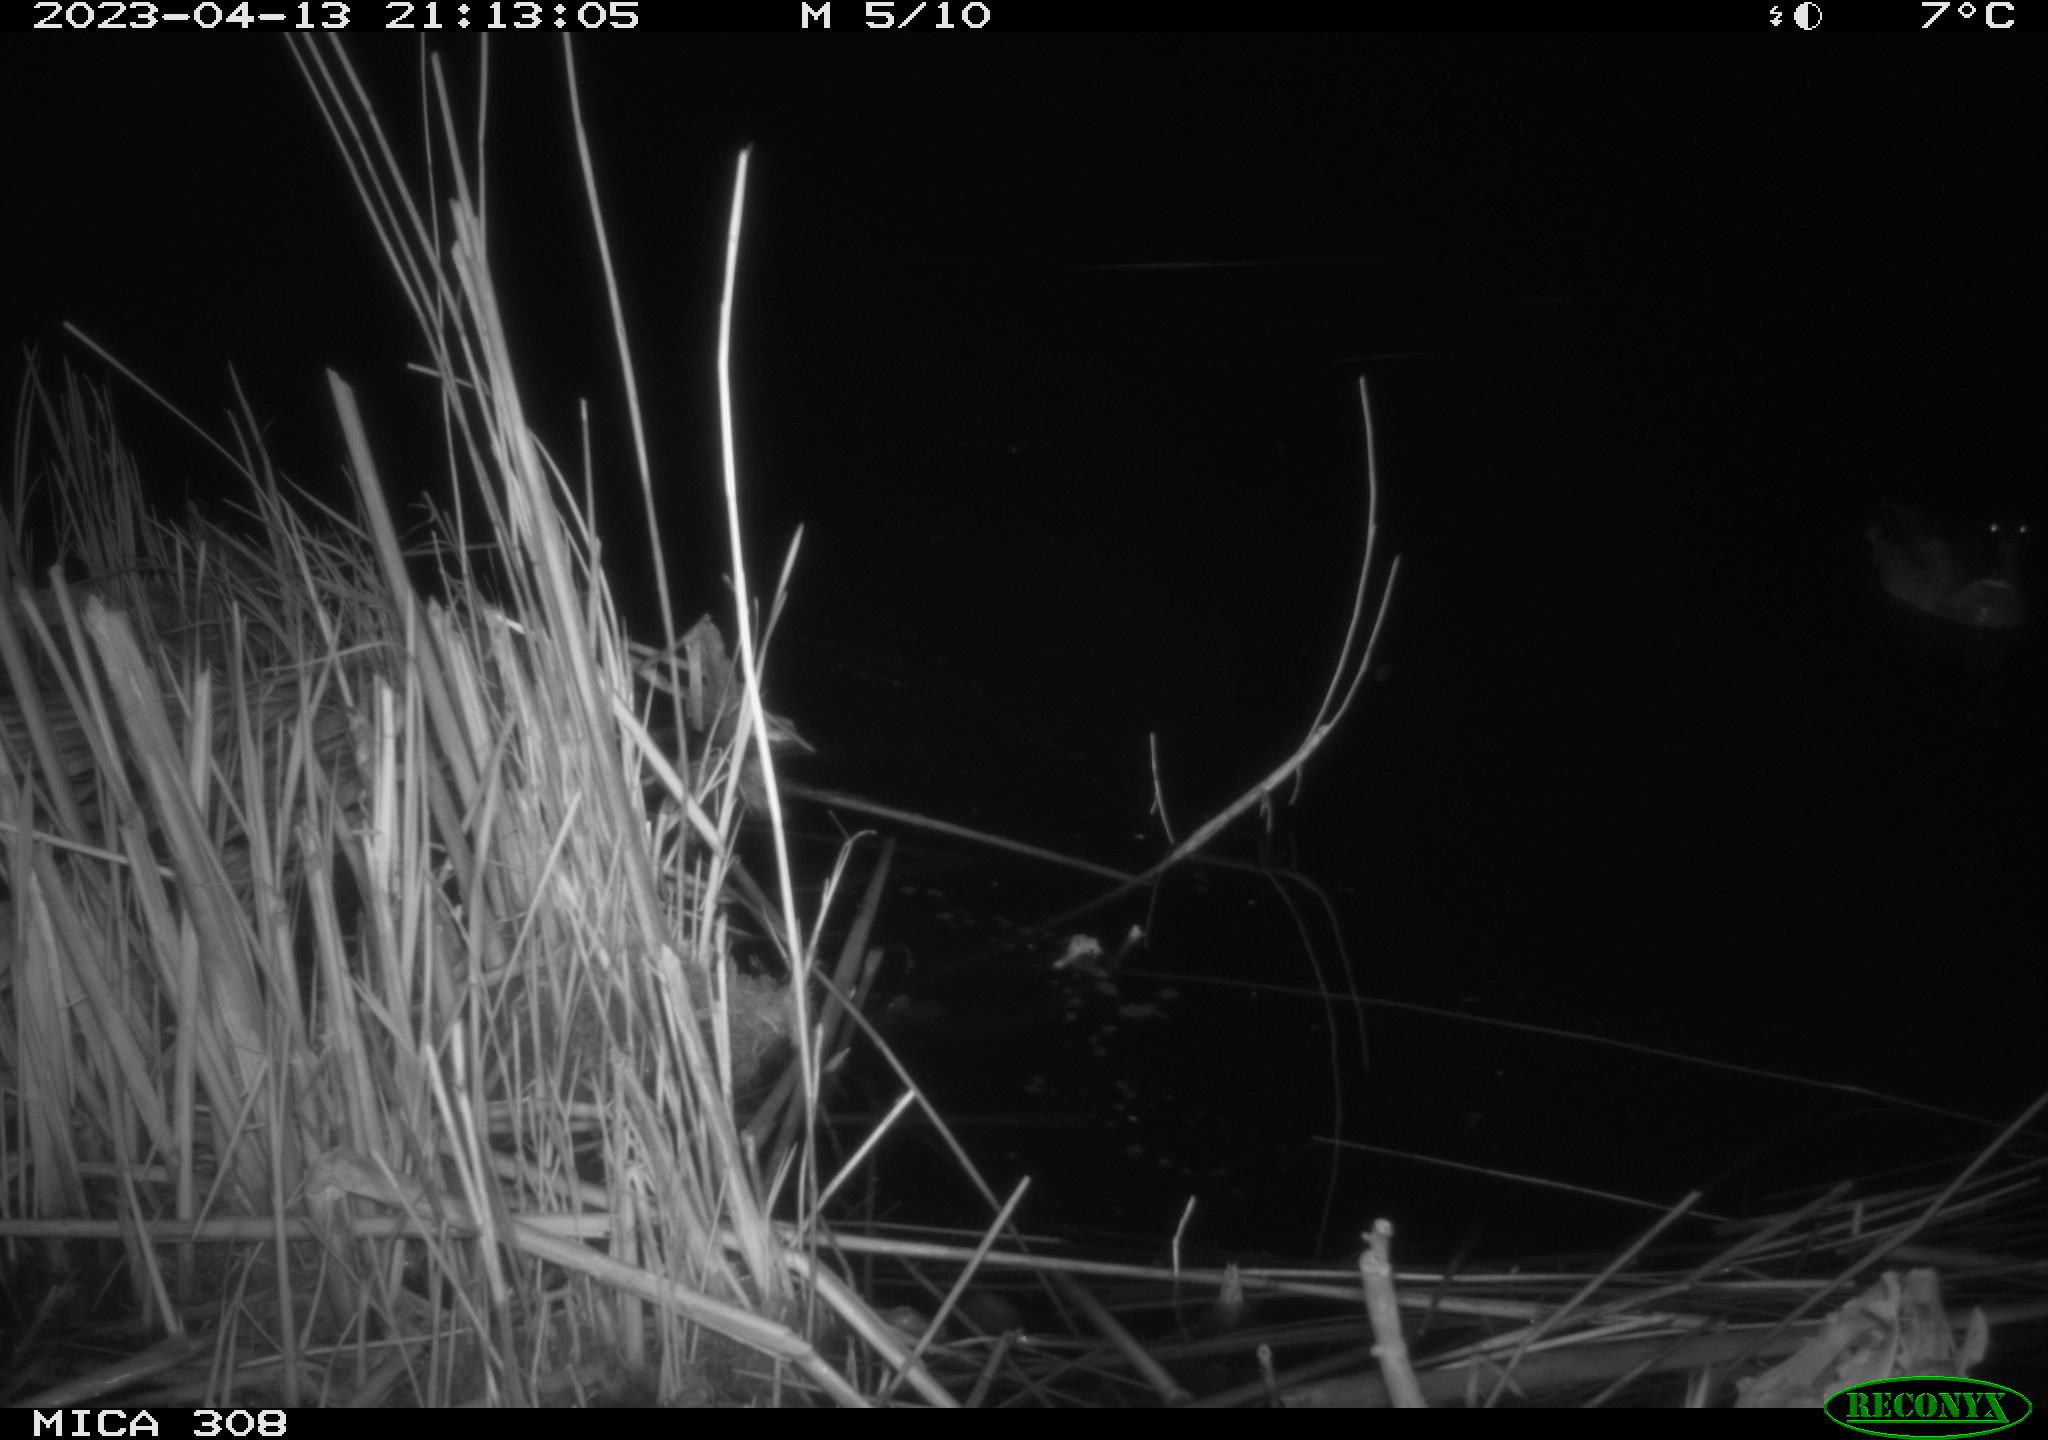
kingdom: Animalia
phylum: Chordata
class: Aves
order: Anseriformes
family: Anatidae
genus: Anas
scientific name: Anas
